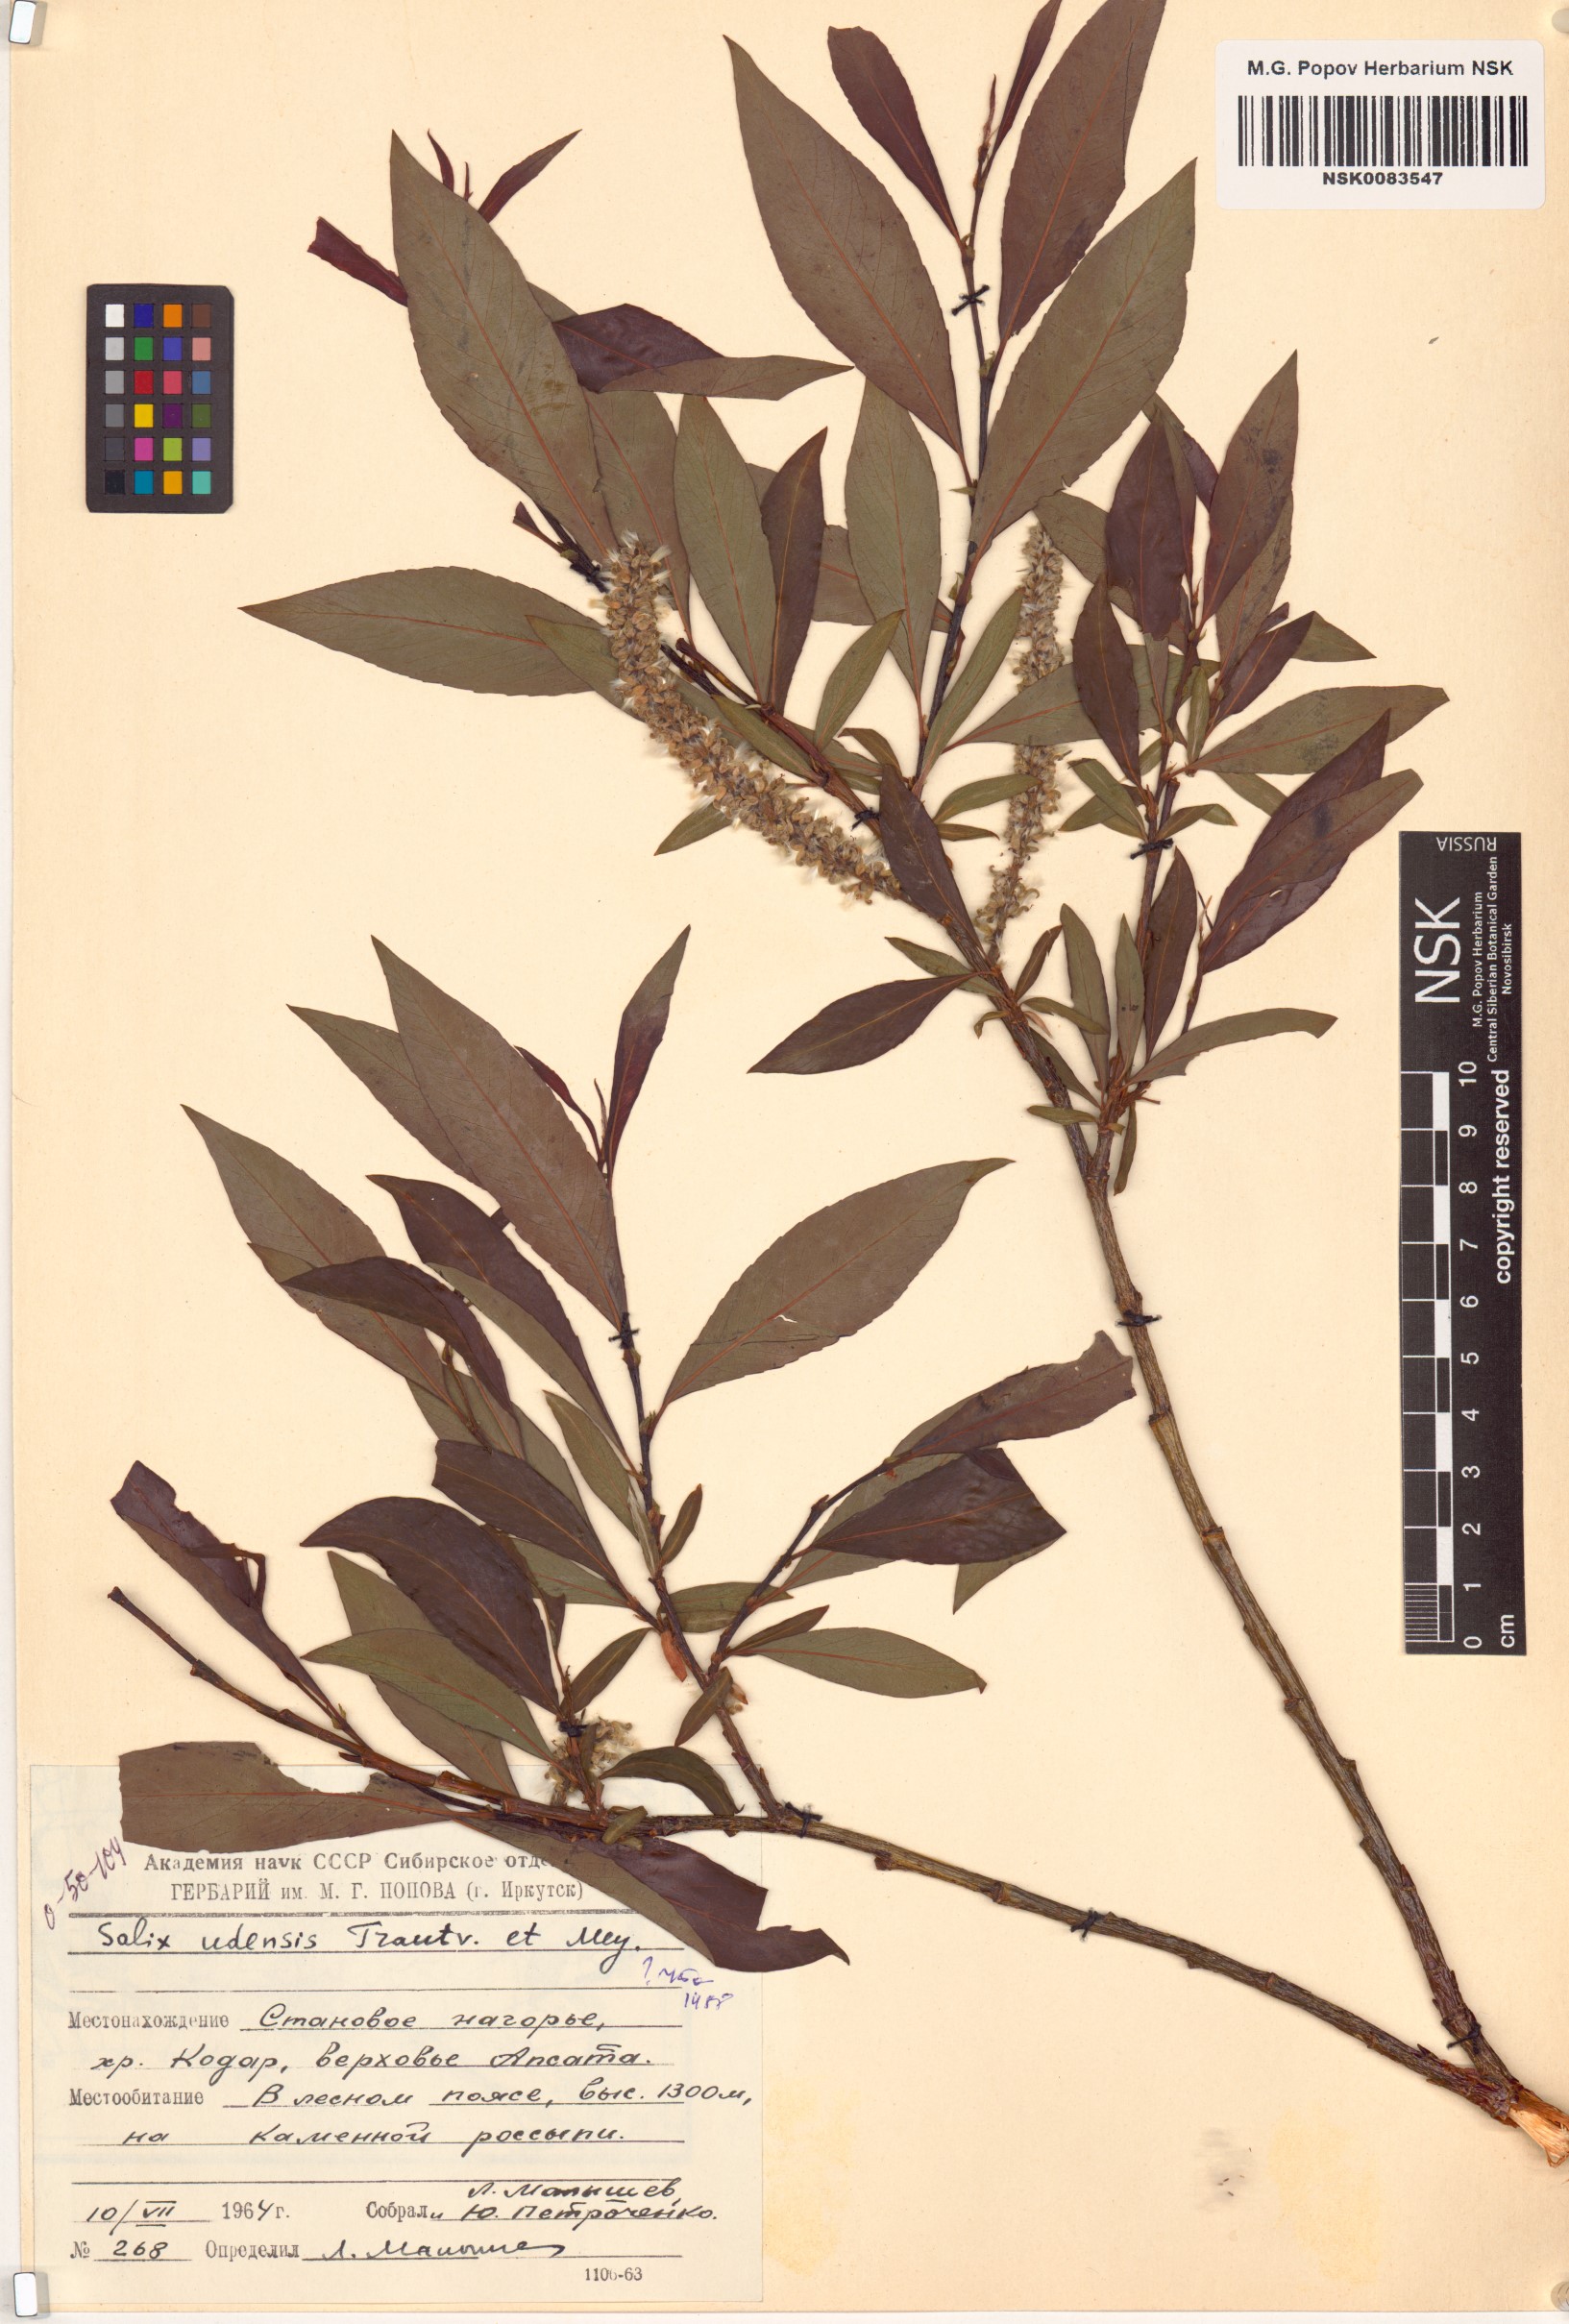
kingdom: Plantae
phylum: Tracheophyta
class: Magnoliopsida
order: Malpighiales
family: Salicaceae
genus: Salix
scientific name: Salix udensis
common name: Sachalin willow
